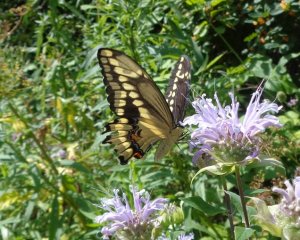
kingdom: Animalia
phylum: Arthropoda
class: Insecta
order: Lepidoptera
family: Papilionidae
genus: Papilio
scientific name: Papilio cresphontes
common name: Eastern Giant Swallowtail
